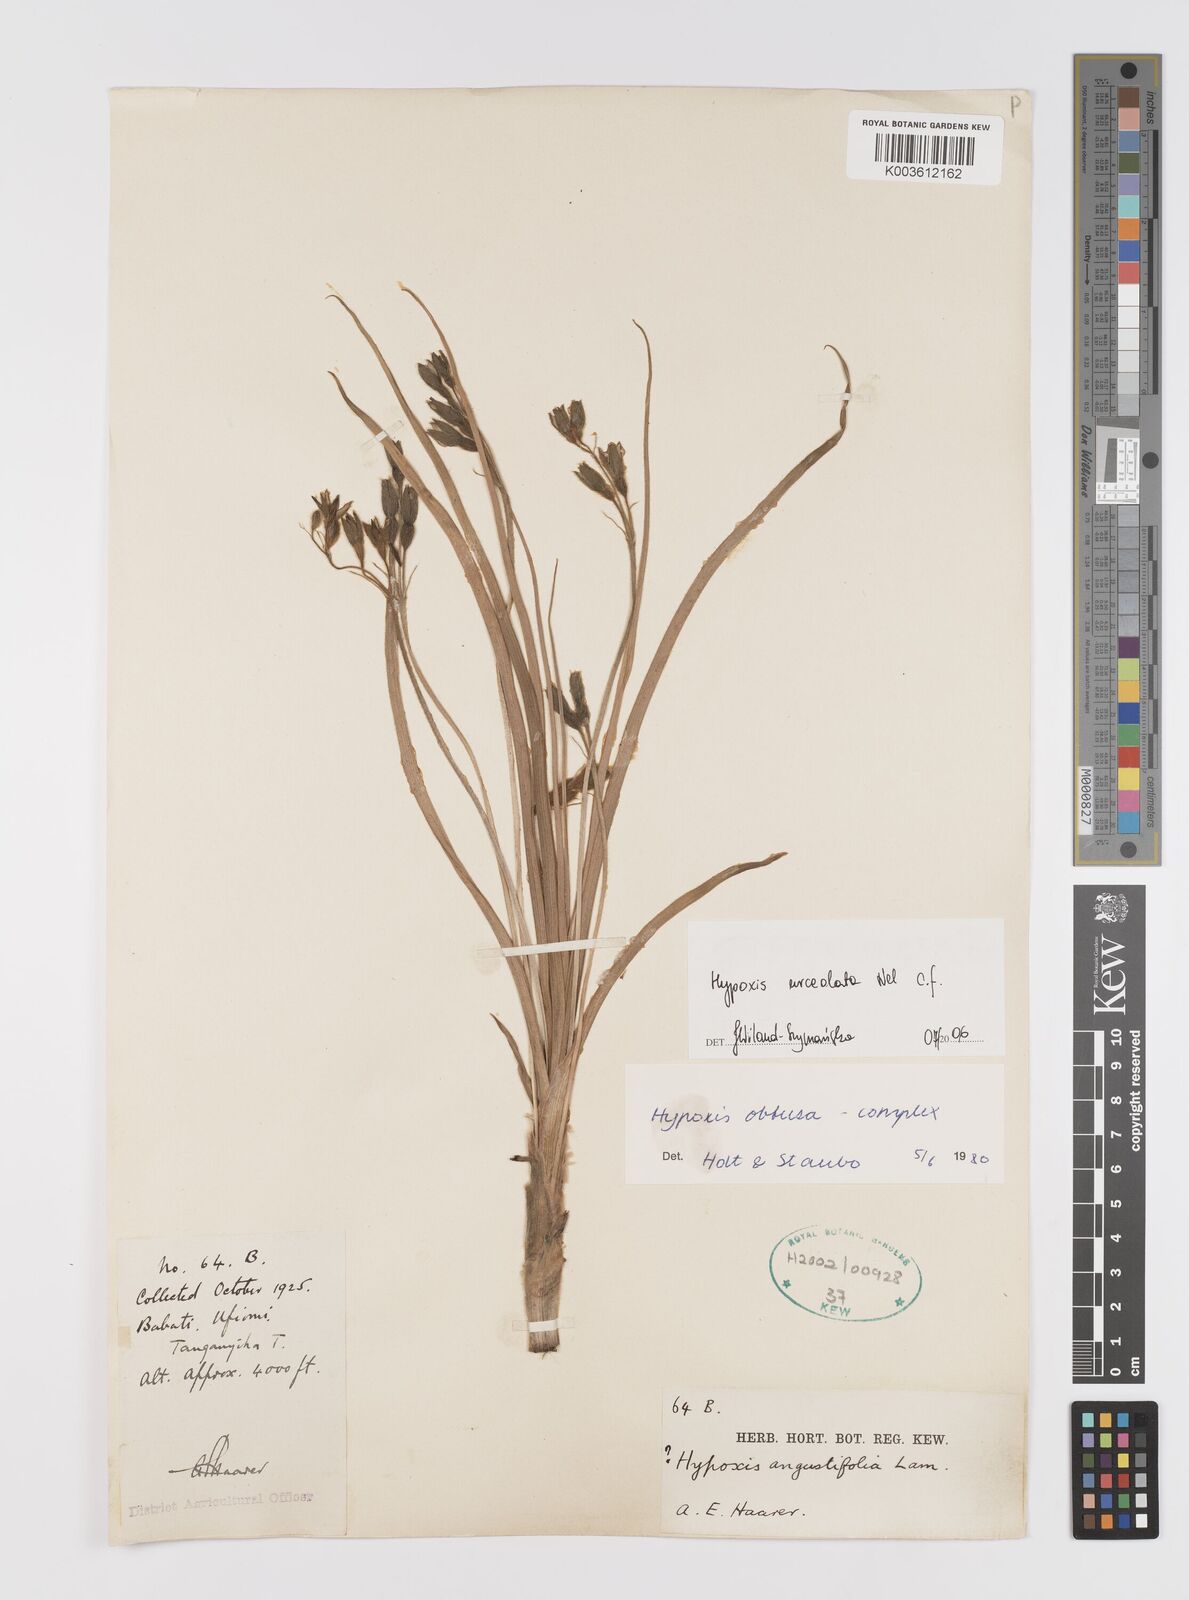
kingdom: Plantae
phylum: Tracheophyta
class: Liliopsida
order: Asparagales
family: Hypoxidaceae
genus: Hypoxis
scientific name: Hypoxis urceolata
